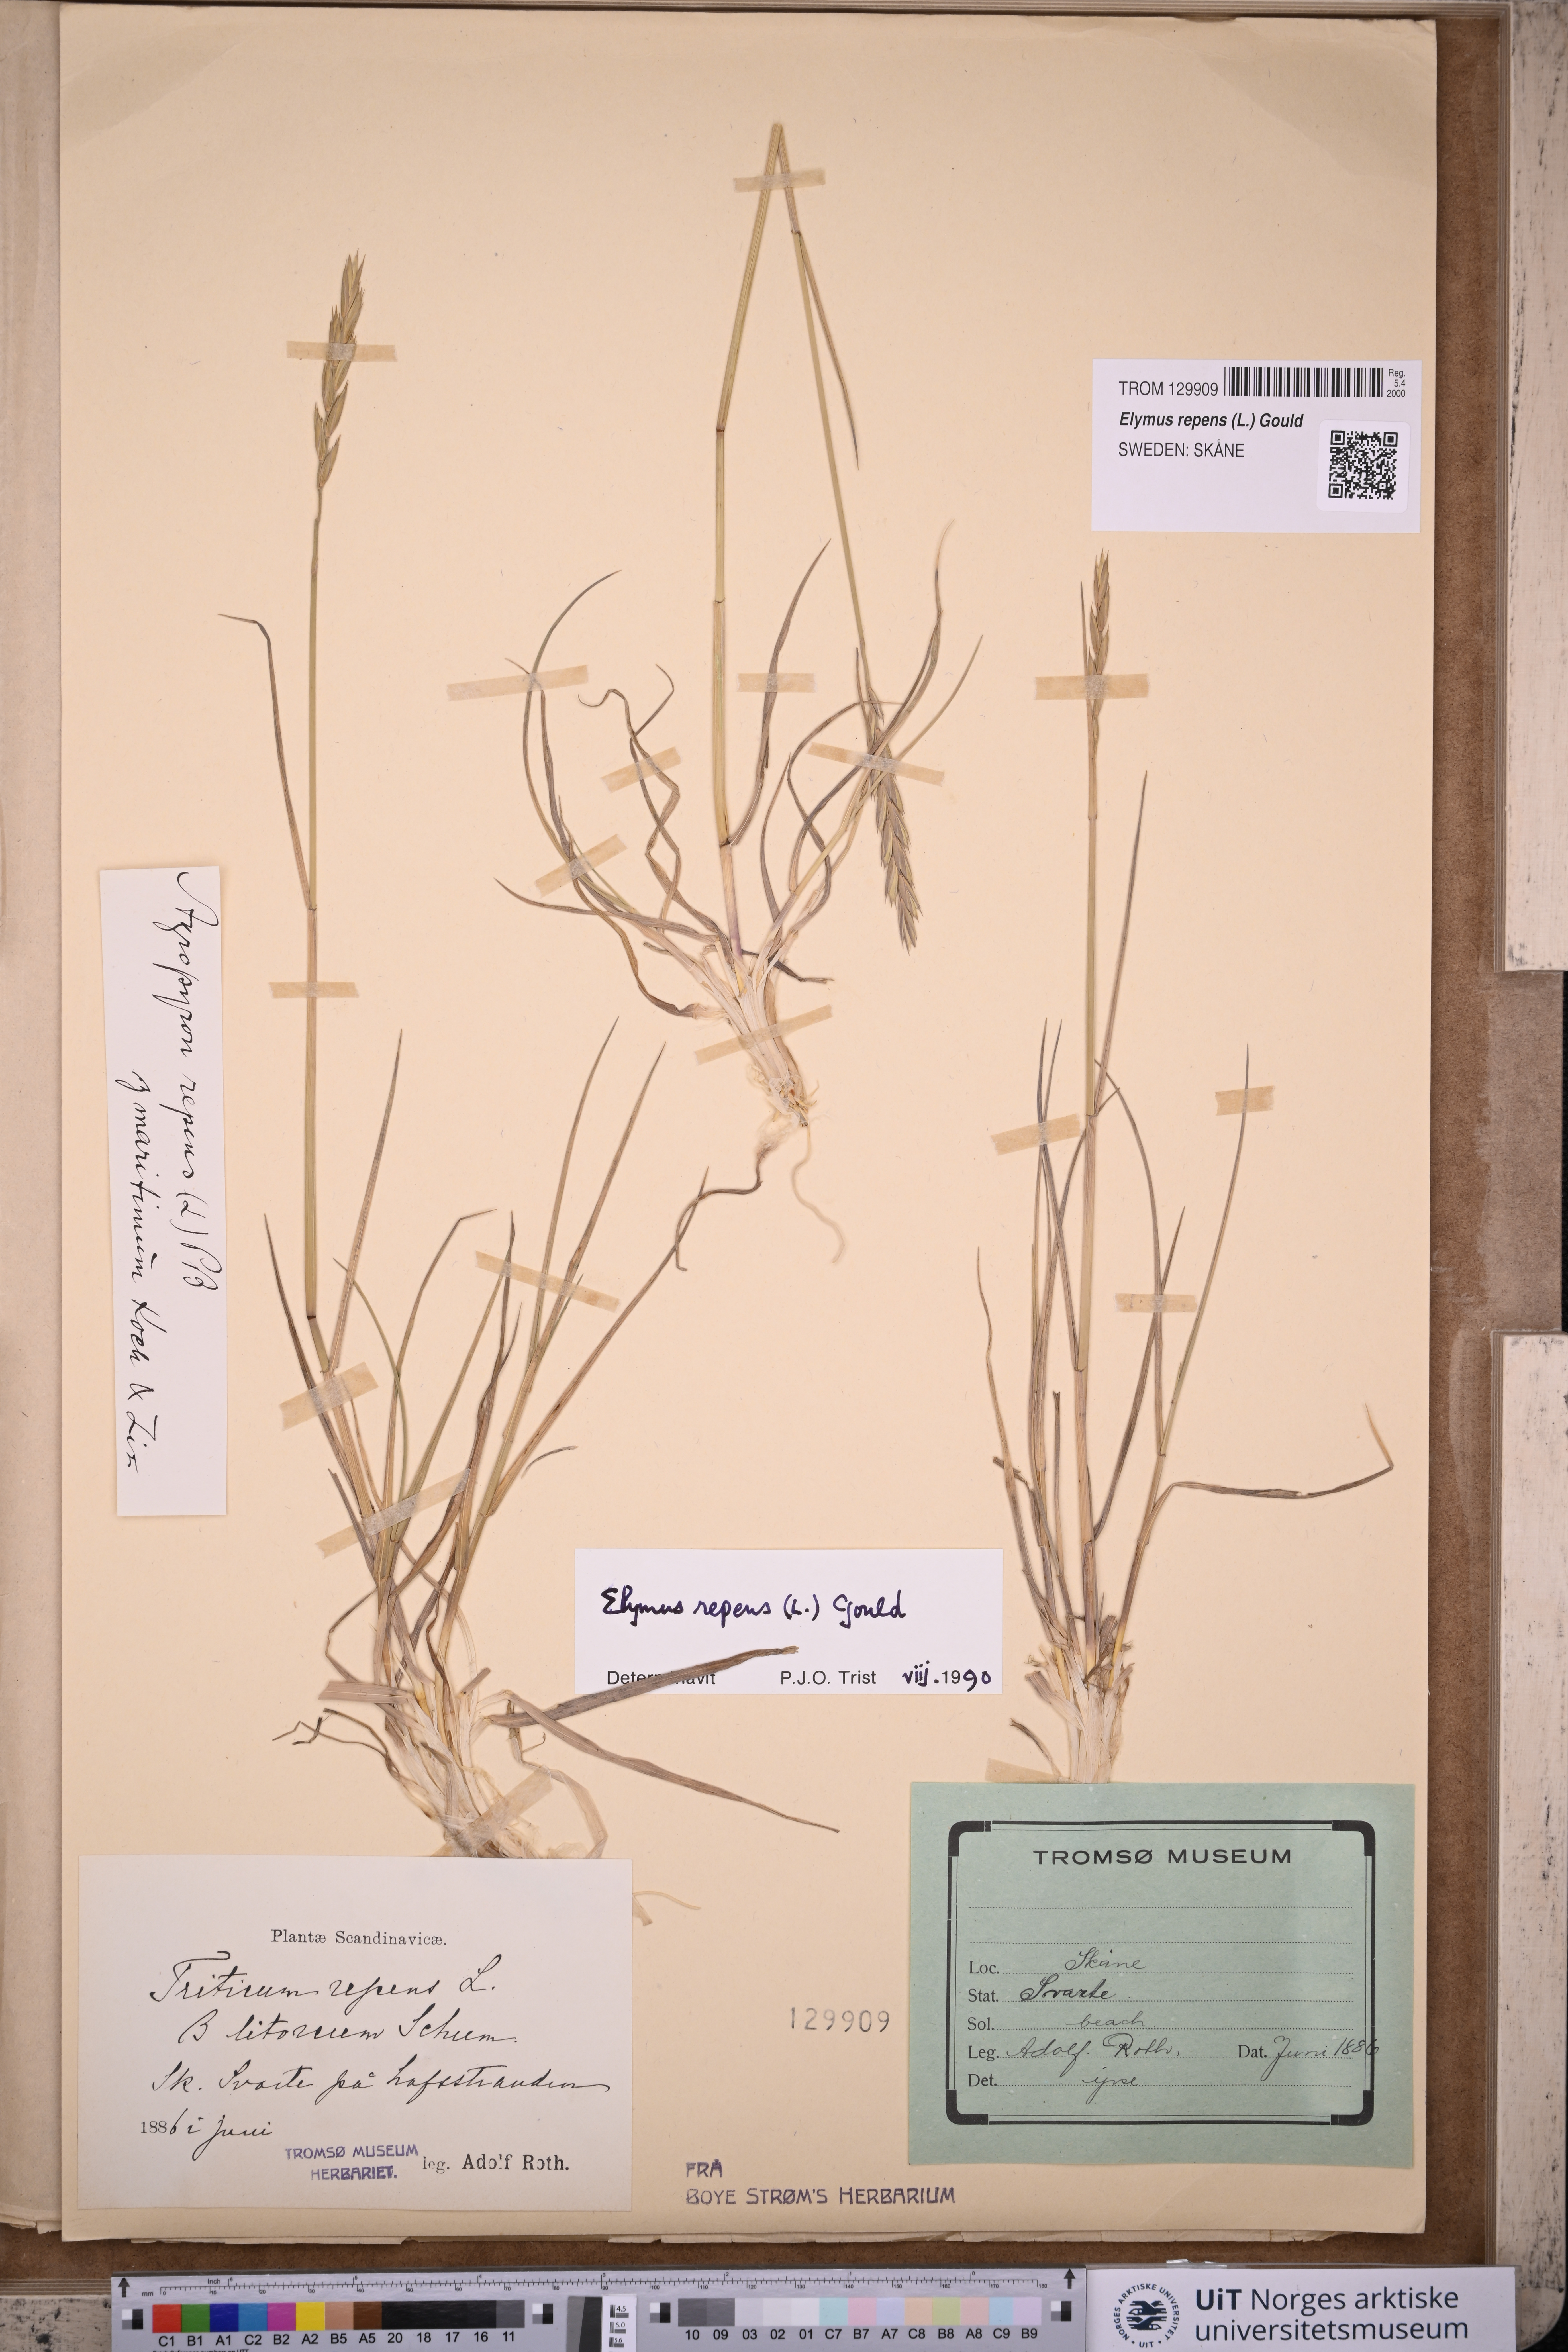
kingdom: Plantae
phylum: Tracheophyta
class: Liliopsida
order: Poales
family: Poaceae
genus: Elymus
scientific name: Elymus repens
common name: Quackgrass
